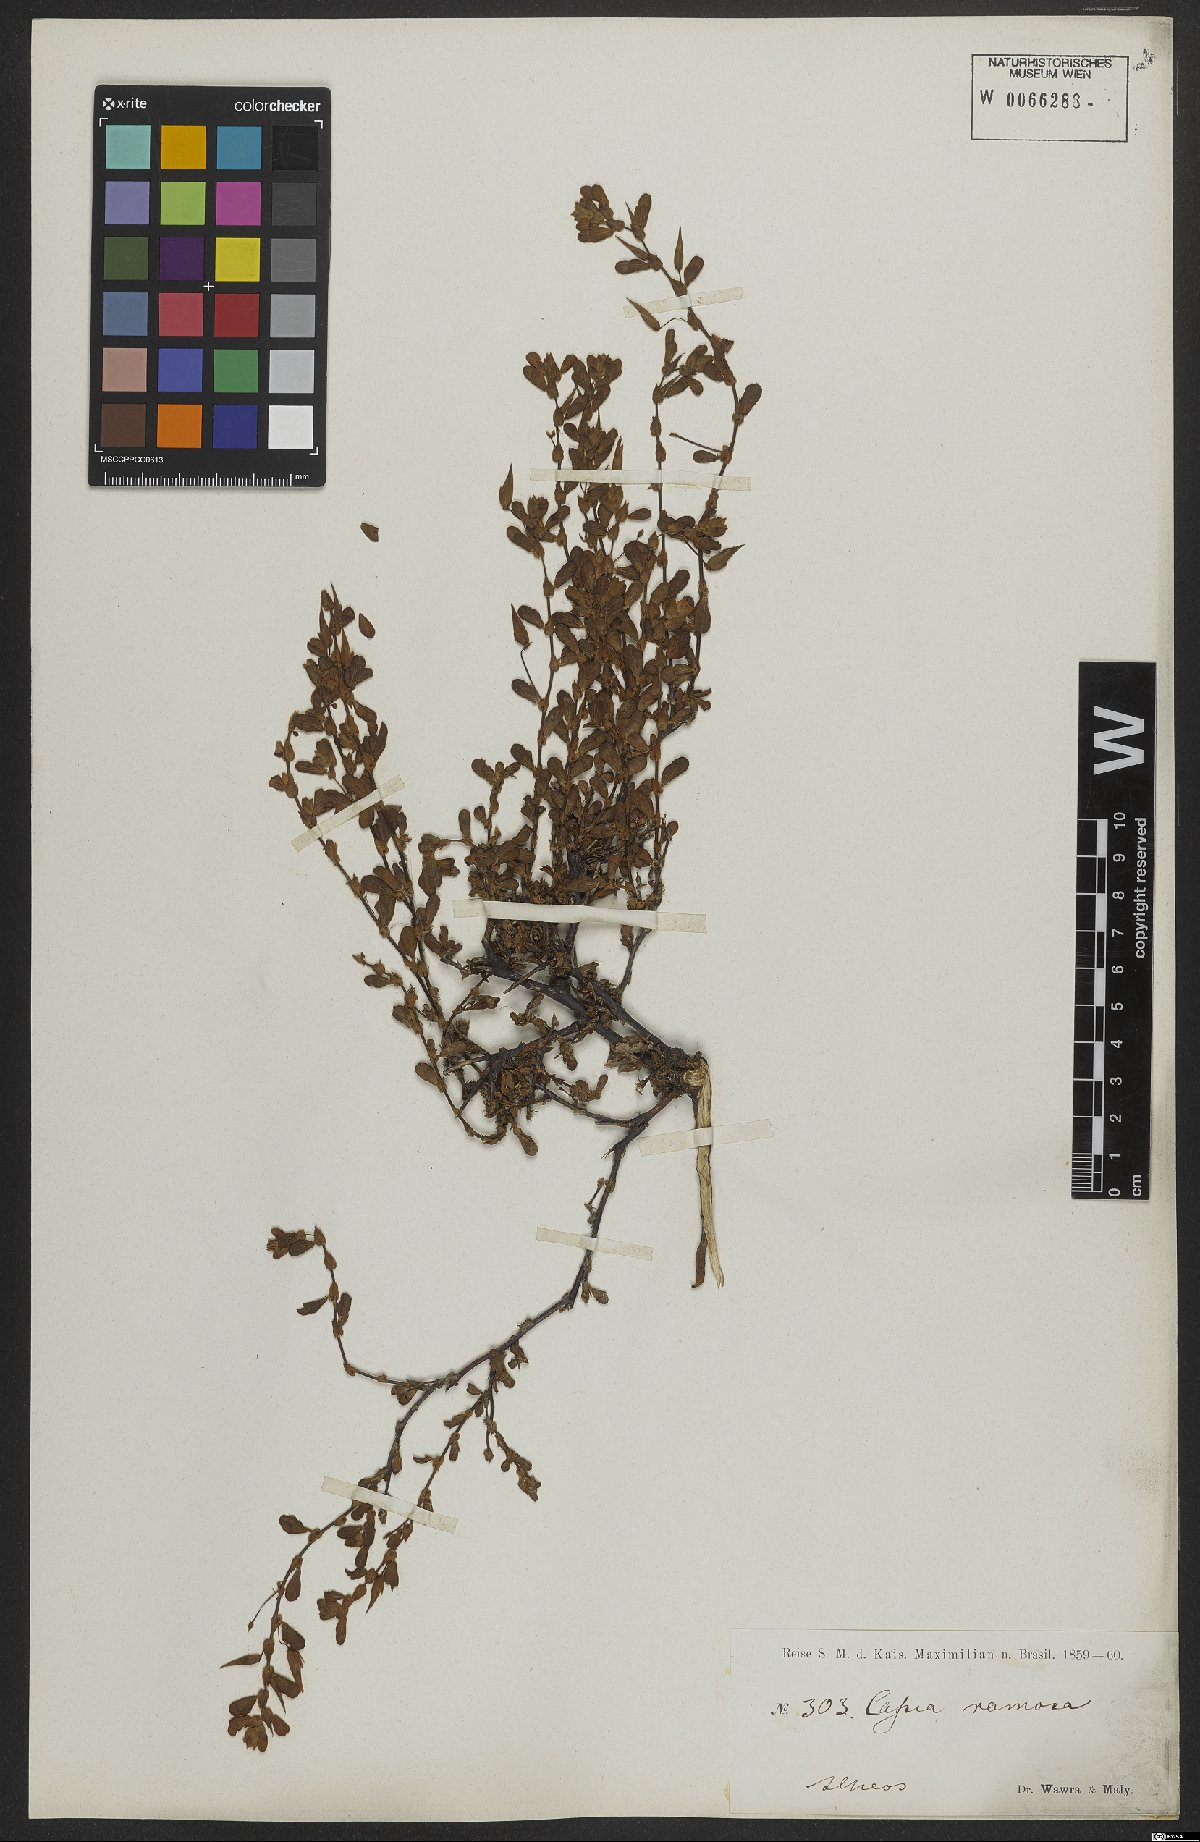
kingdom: Plantae
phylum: Tracheophyta
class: Magnoliopsida
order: Fabales
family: Fabaceae
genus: Senna
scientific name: Senna uniflora
